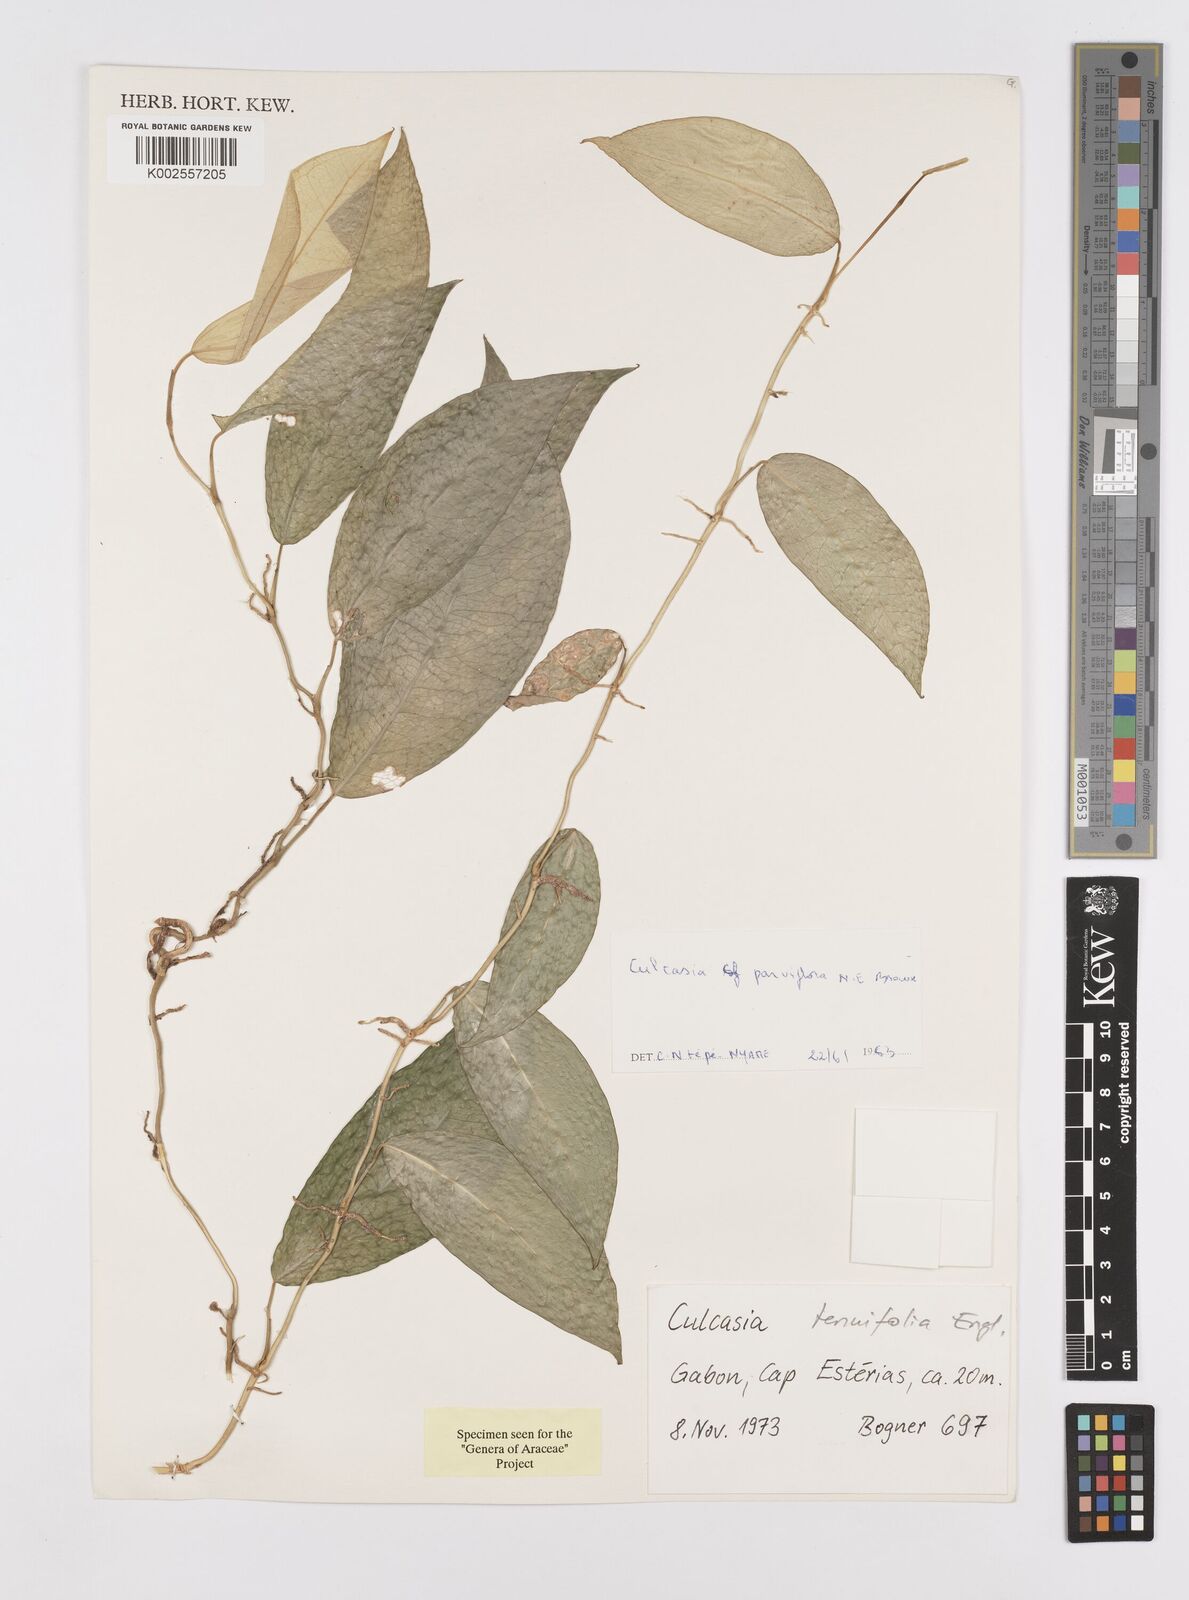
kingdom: Plantae
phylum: Tracheophyta
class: Liliopsida
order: Alismatales
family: Araceae
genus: Culcasia
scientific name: Culcasia tenuifolia
